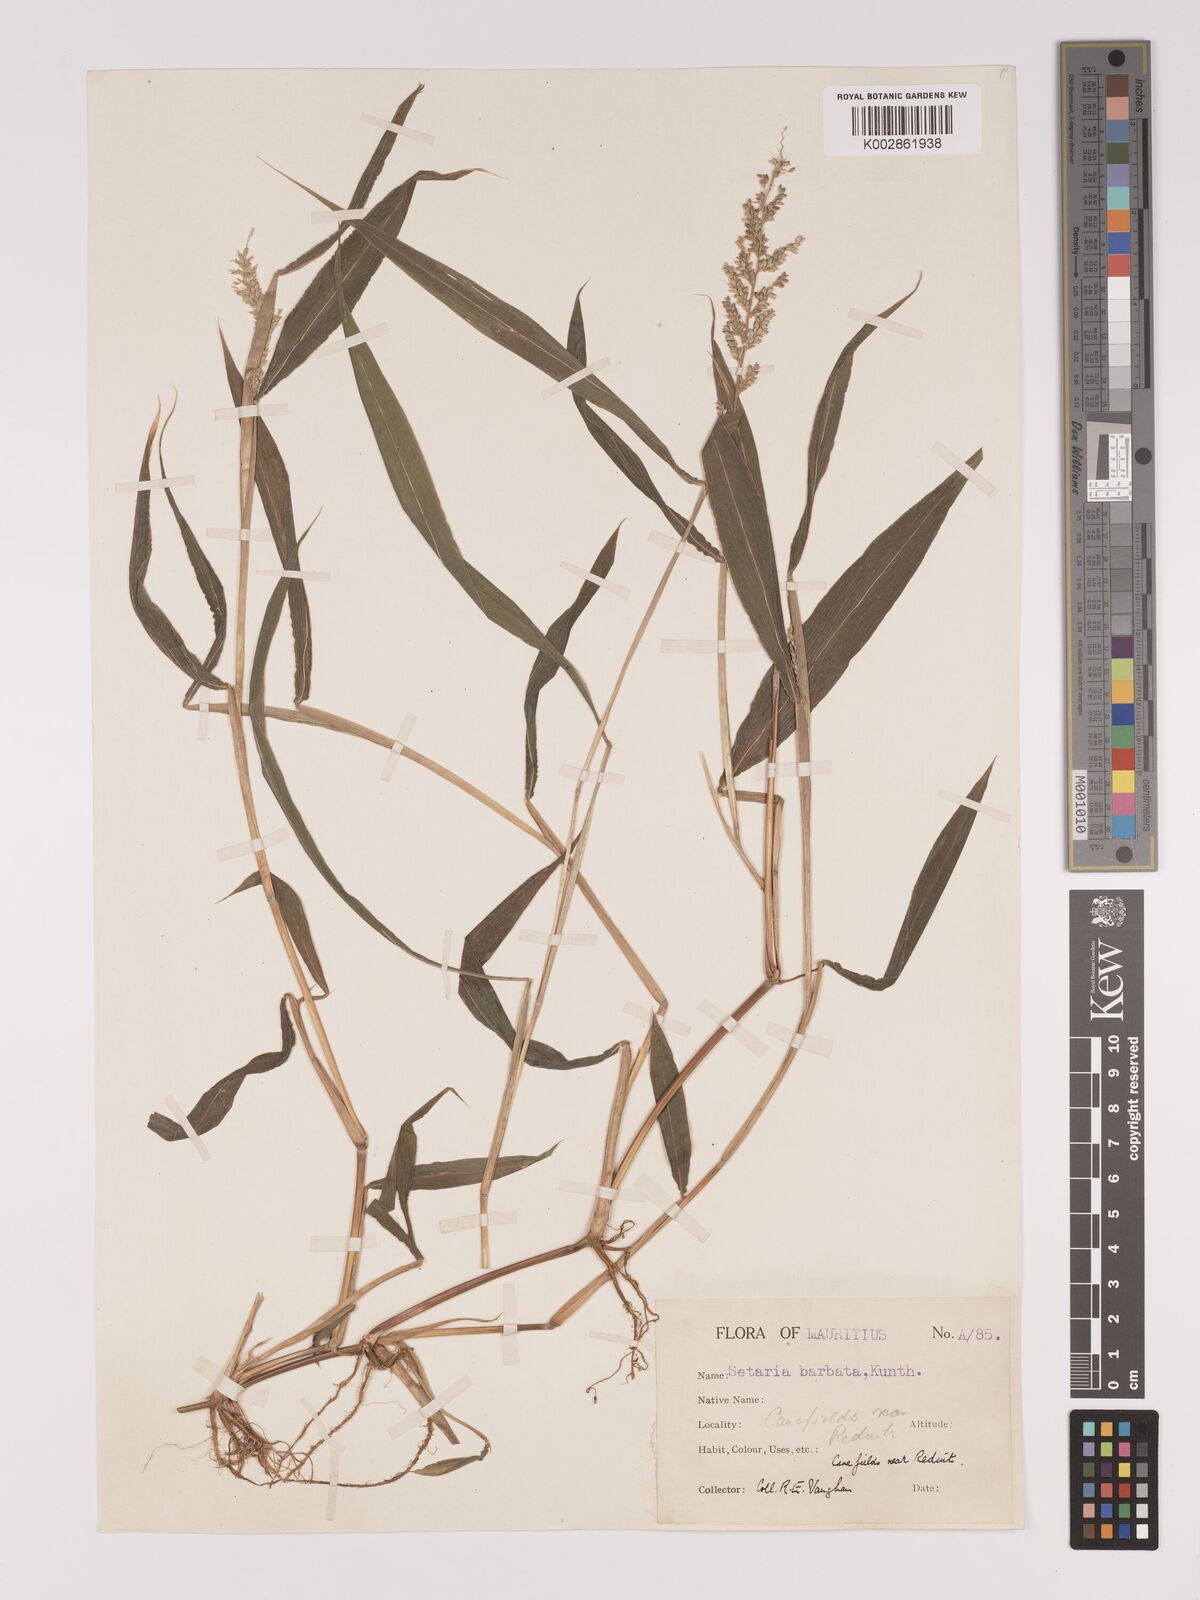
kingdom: Plantae
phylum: Tracheophyta
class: Liliopsida
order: Poales
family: Poaceae
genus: Setaria
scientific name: Setaria barbata
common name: East indian bristlegrass
